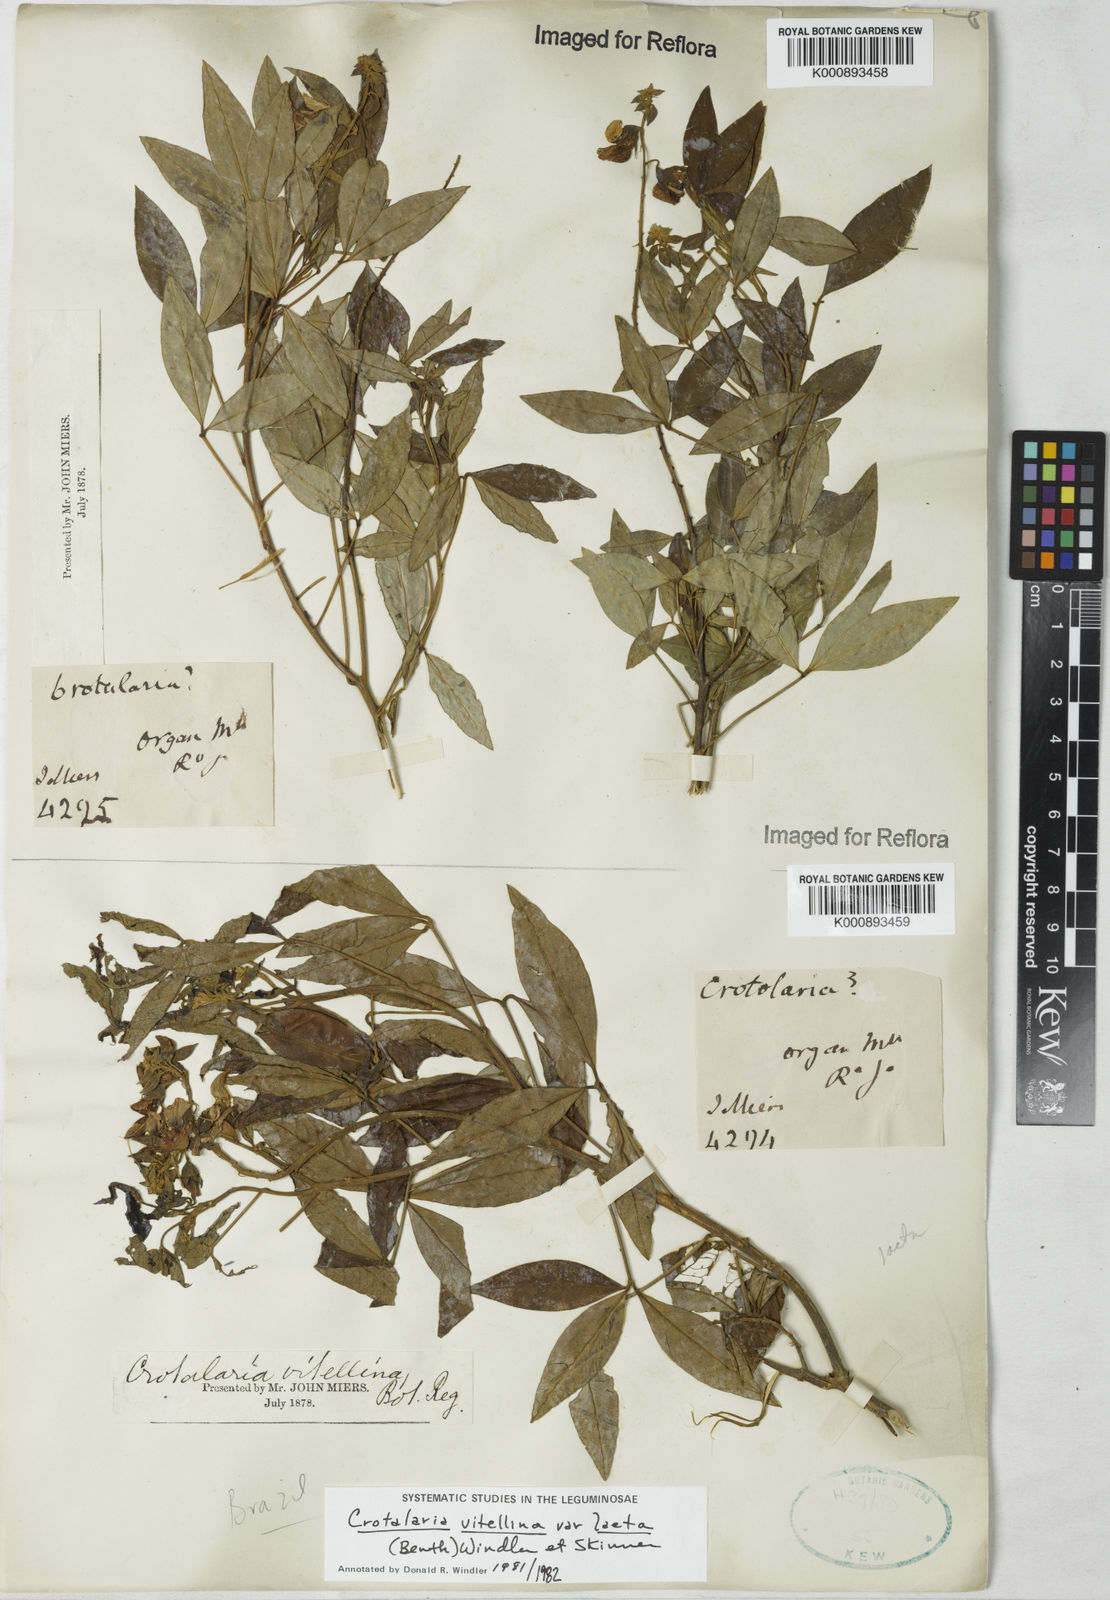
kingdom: Plantae
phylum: Tracheophyta
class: Magnoliopsida
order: Fabales
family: Fabaceae
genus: Crotalaria
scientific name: Crotalaria laeta
